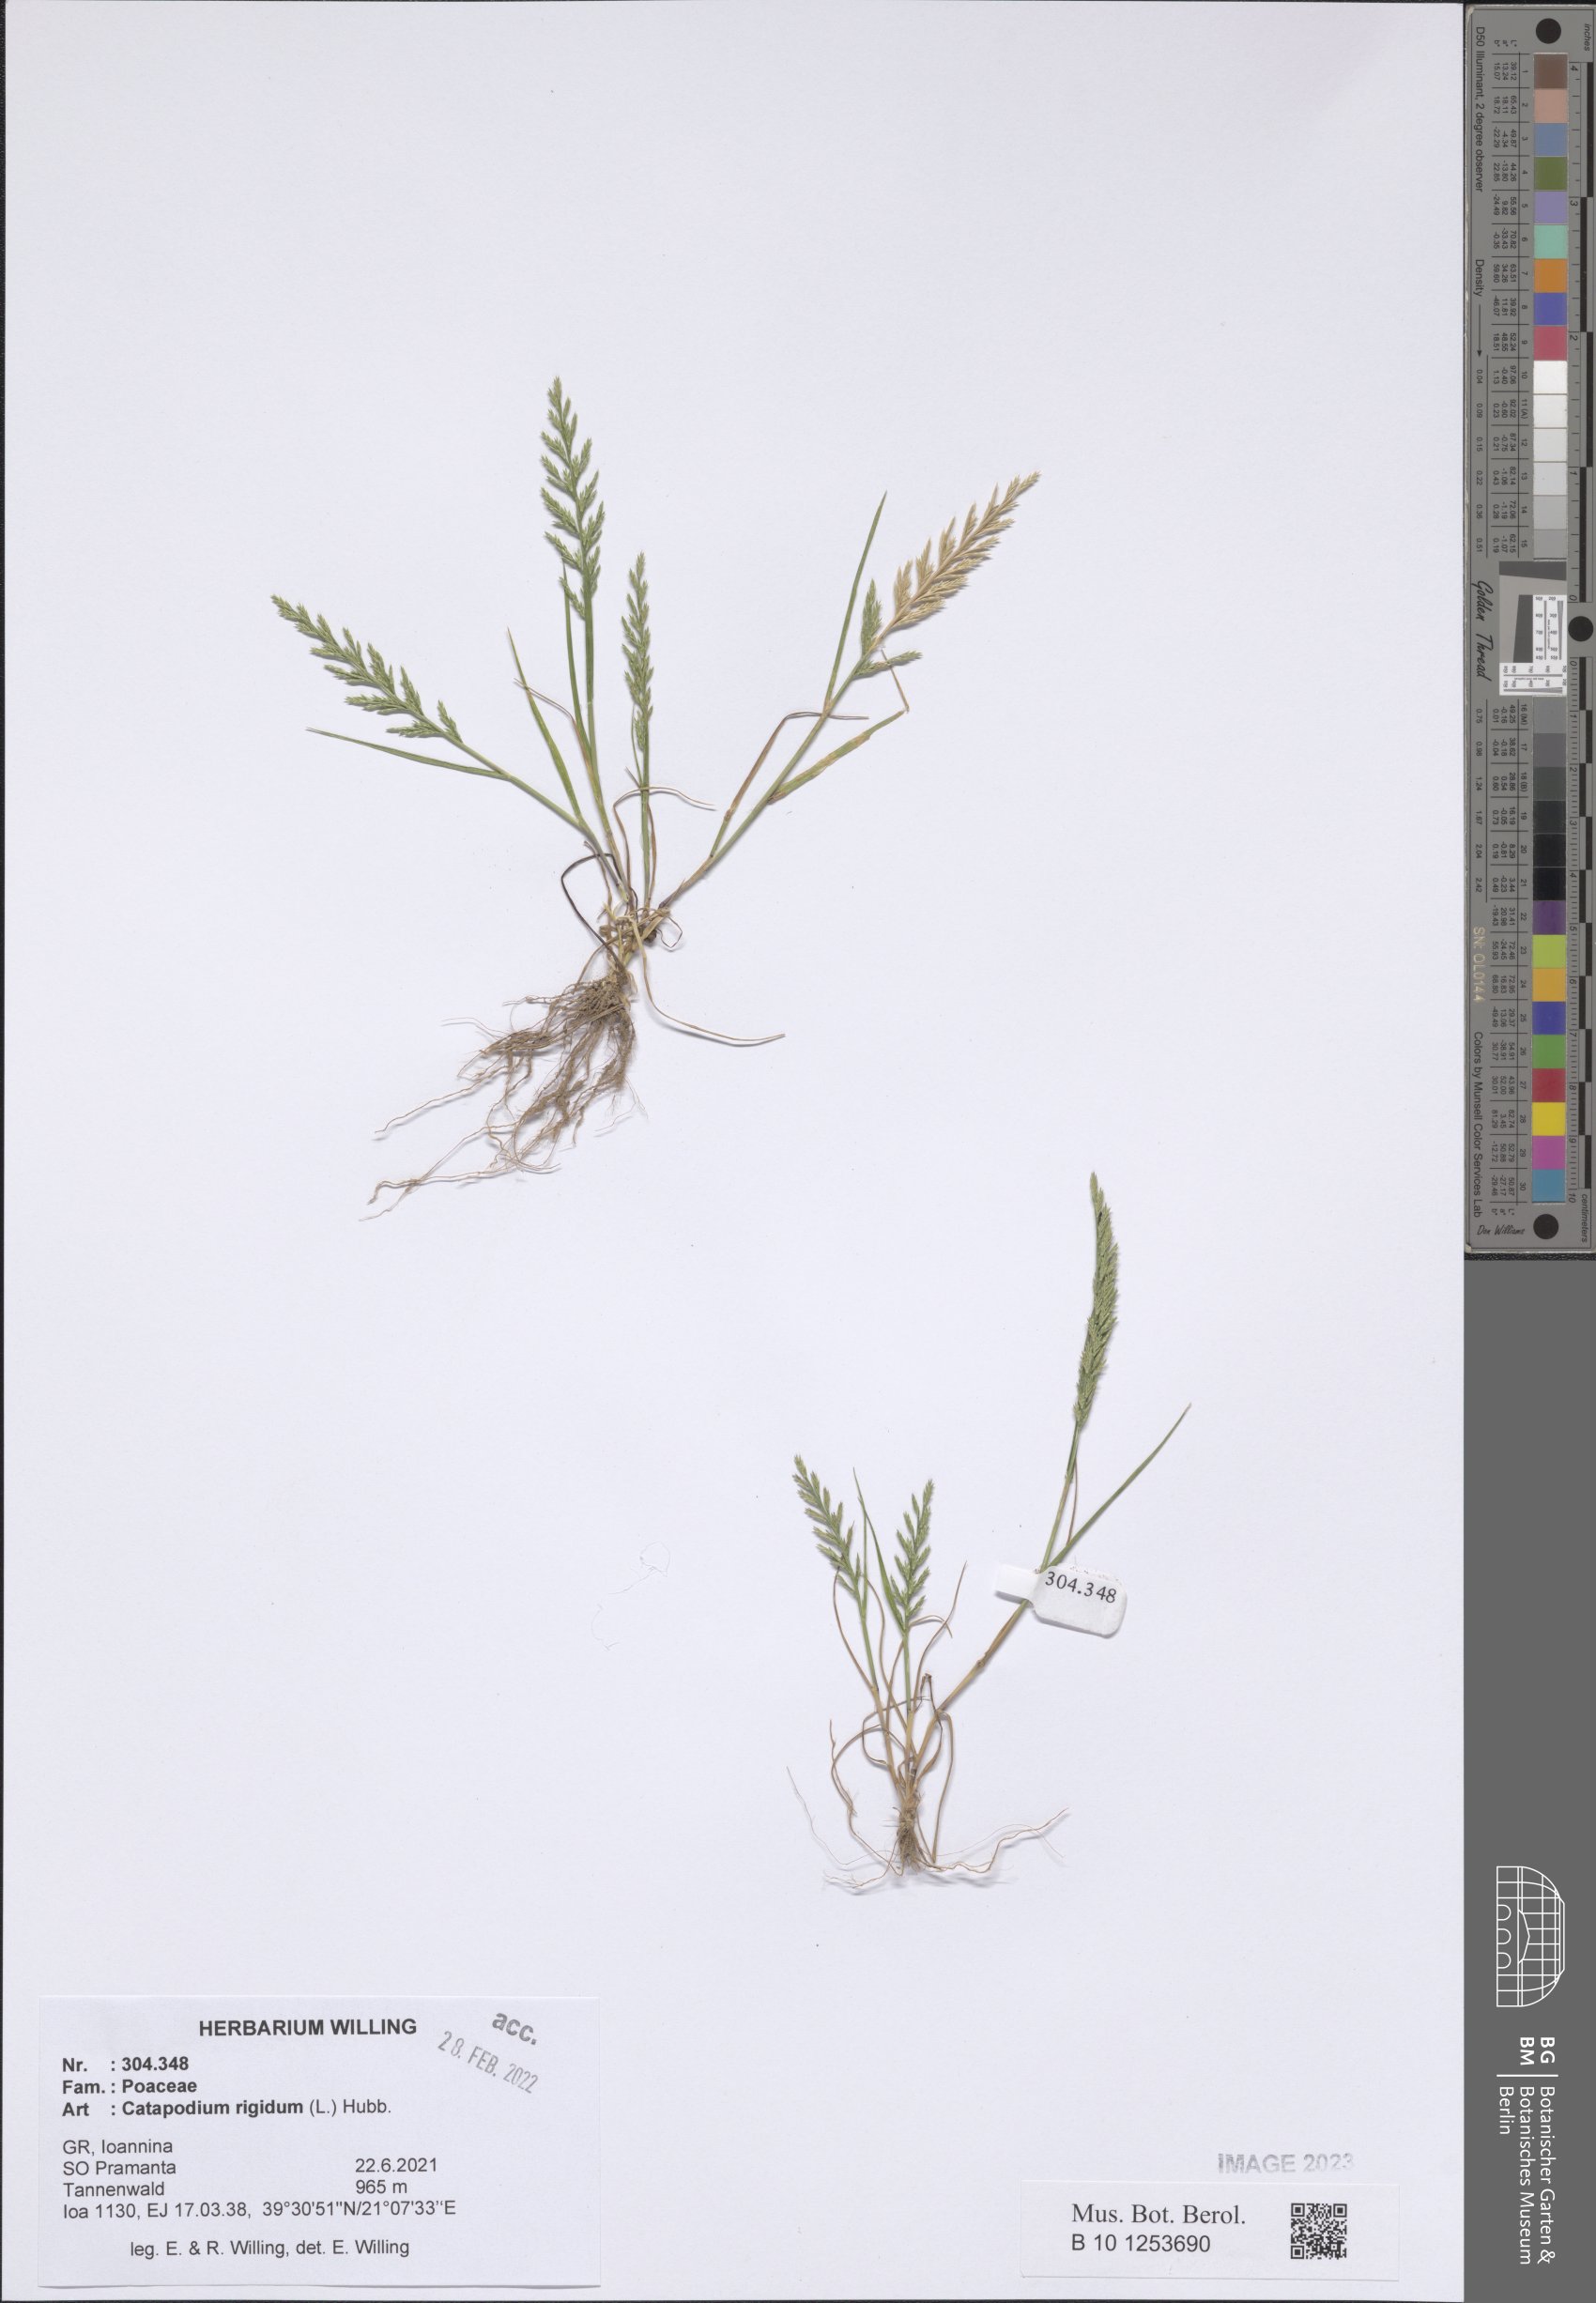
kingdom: Plantae
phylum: Tracheophyta
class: Liliopsida
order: Poales
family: Poaceae
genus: Catapodium
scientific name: Catapodium rigidum
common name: Fern-grass
